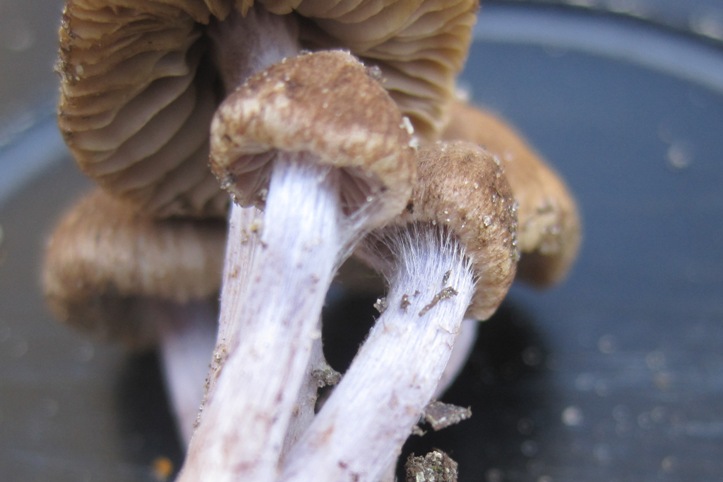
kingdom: Fungi
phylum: Basidiomycota
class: Agaricomycetes
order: Agaricales
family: Inocybaceae
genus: Inocybe
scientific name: Inocybe griseolilacina
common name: lillagrå trævlhat
